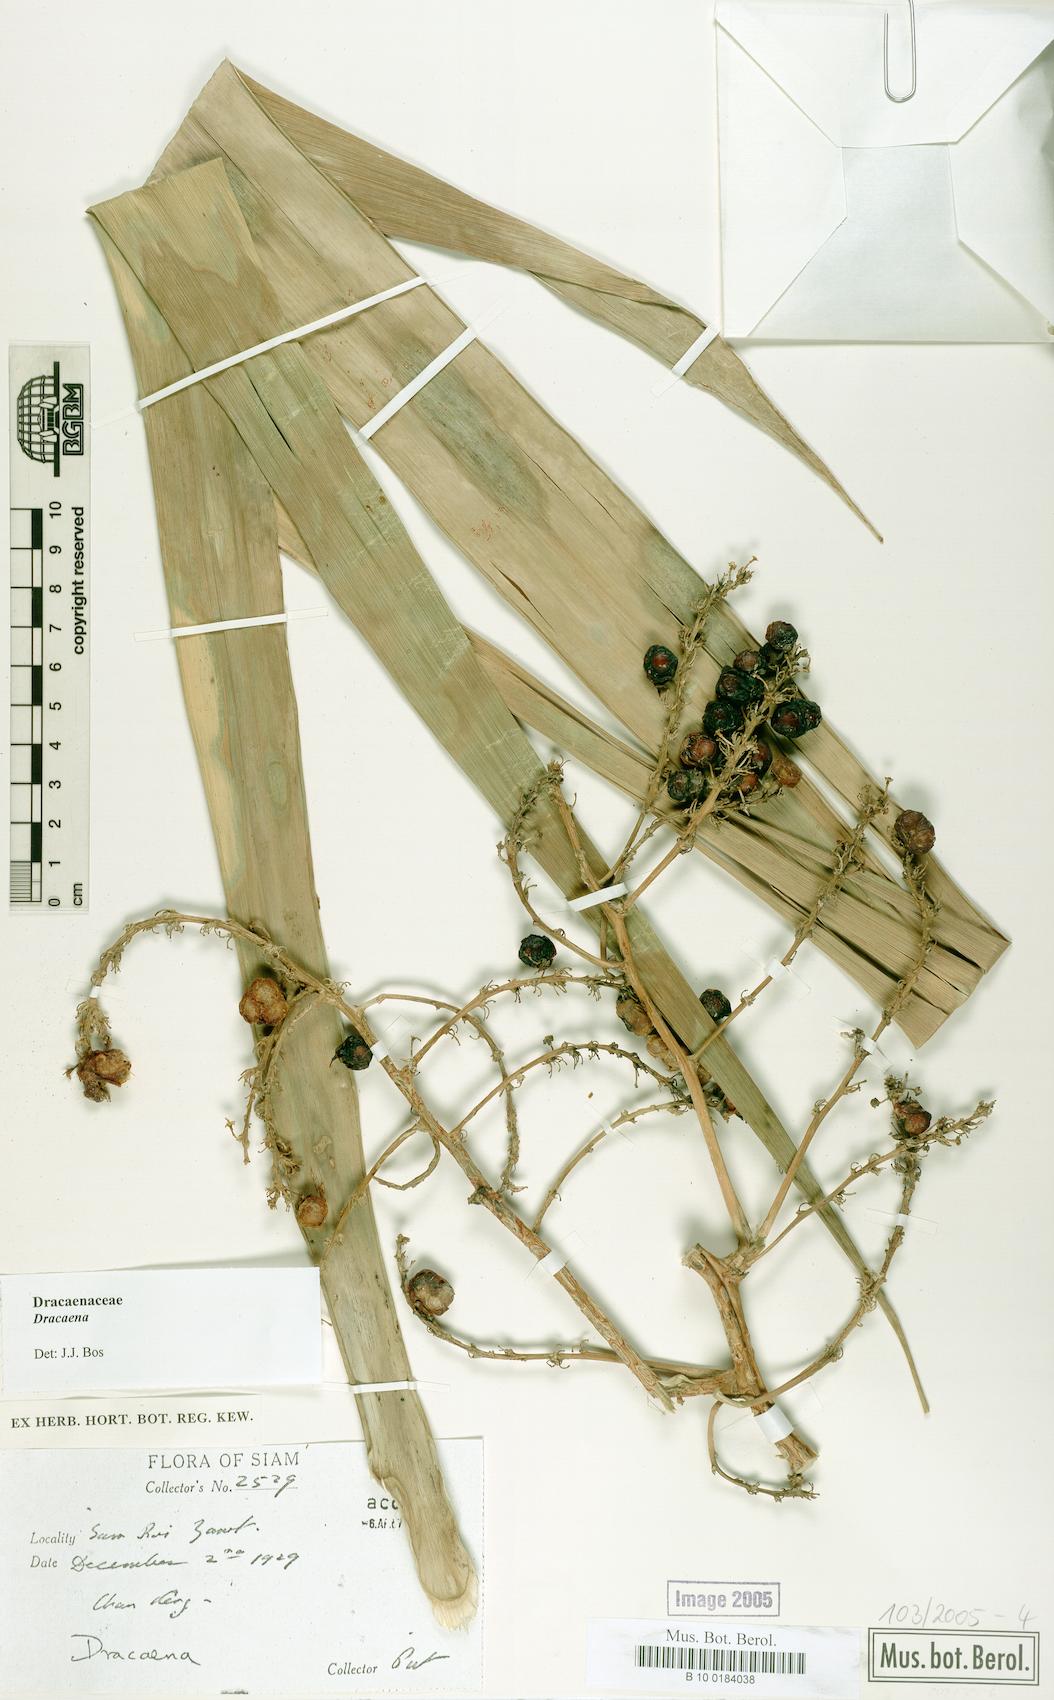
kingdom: Plantae
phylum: Tracheophyta
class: Liliopsida
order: Asparagales
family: Asparagaceae
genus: Dracaena
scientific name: Dracaena
